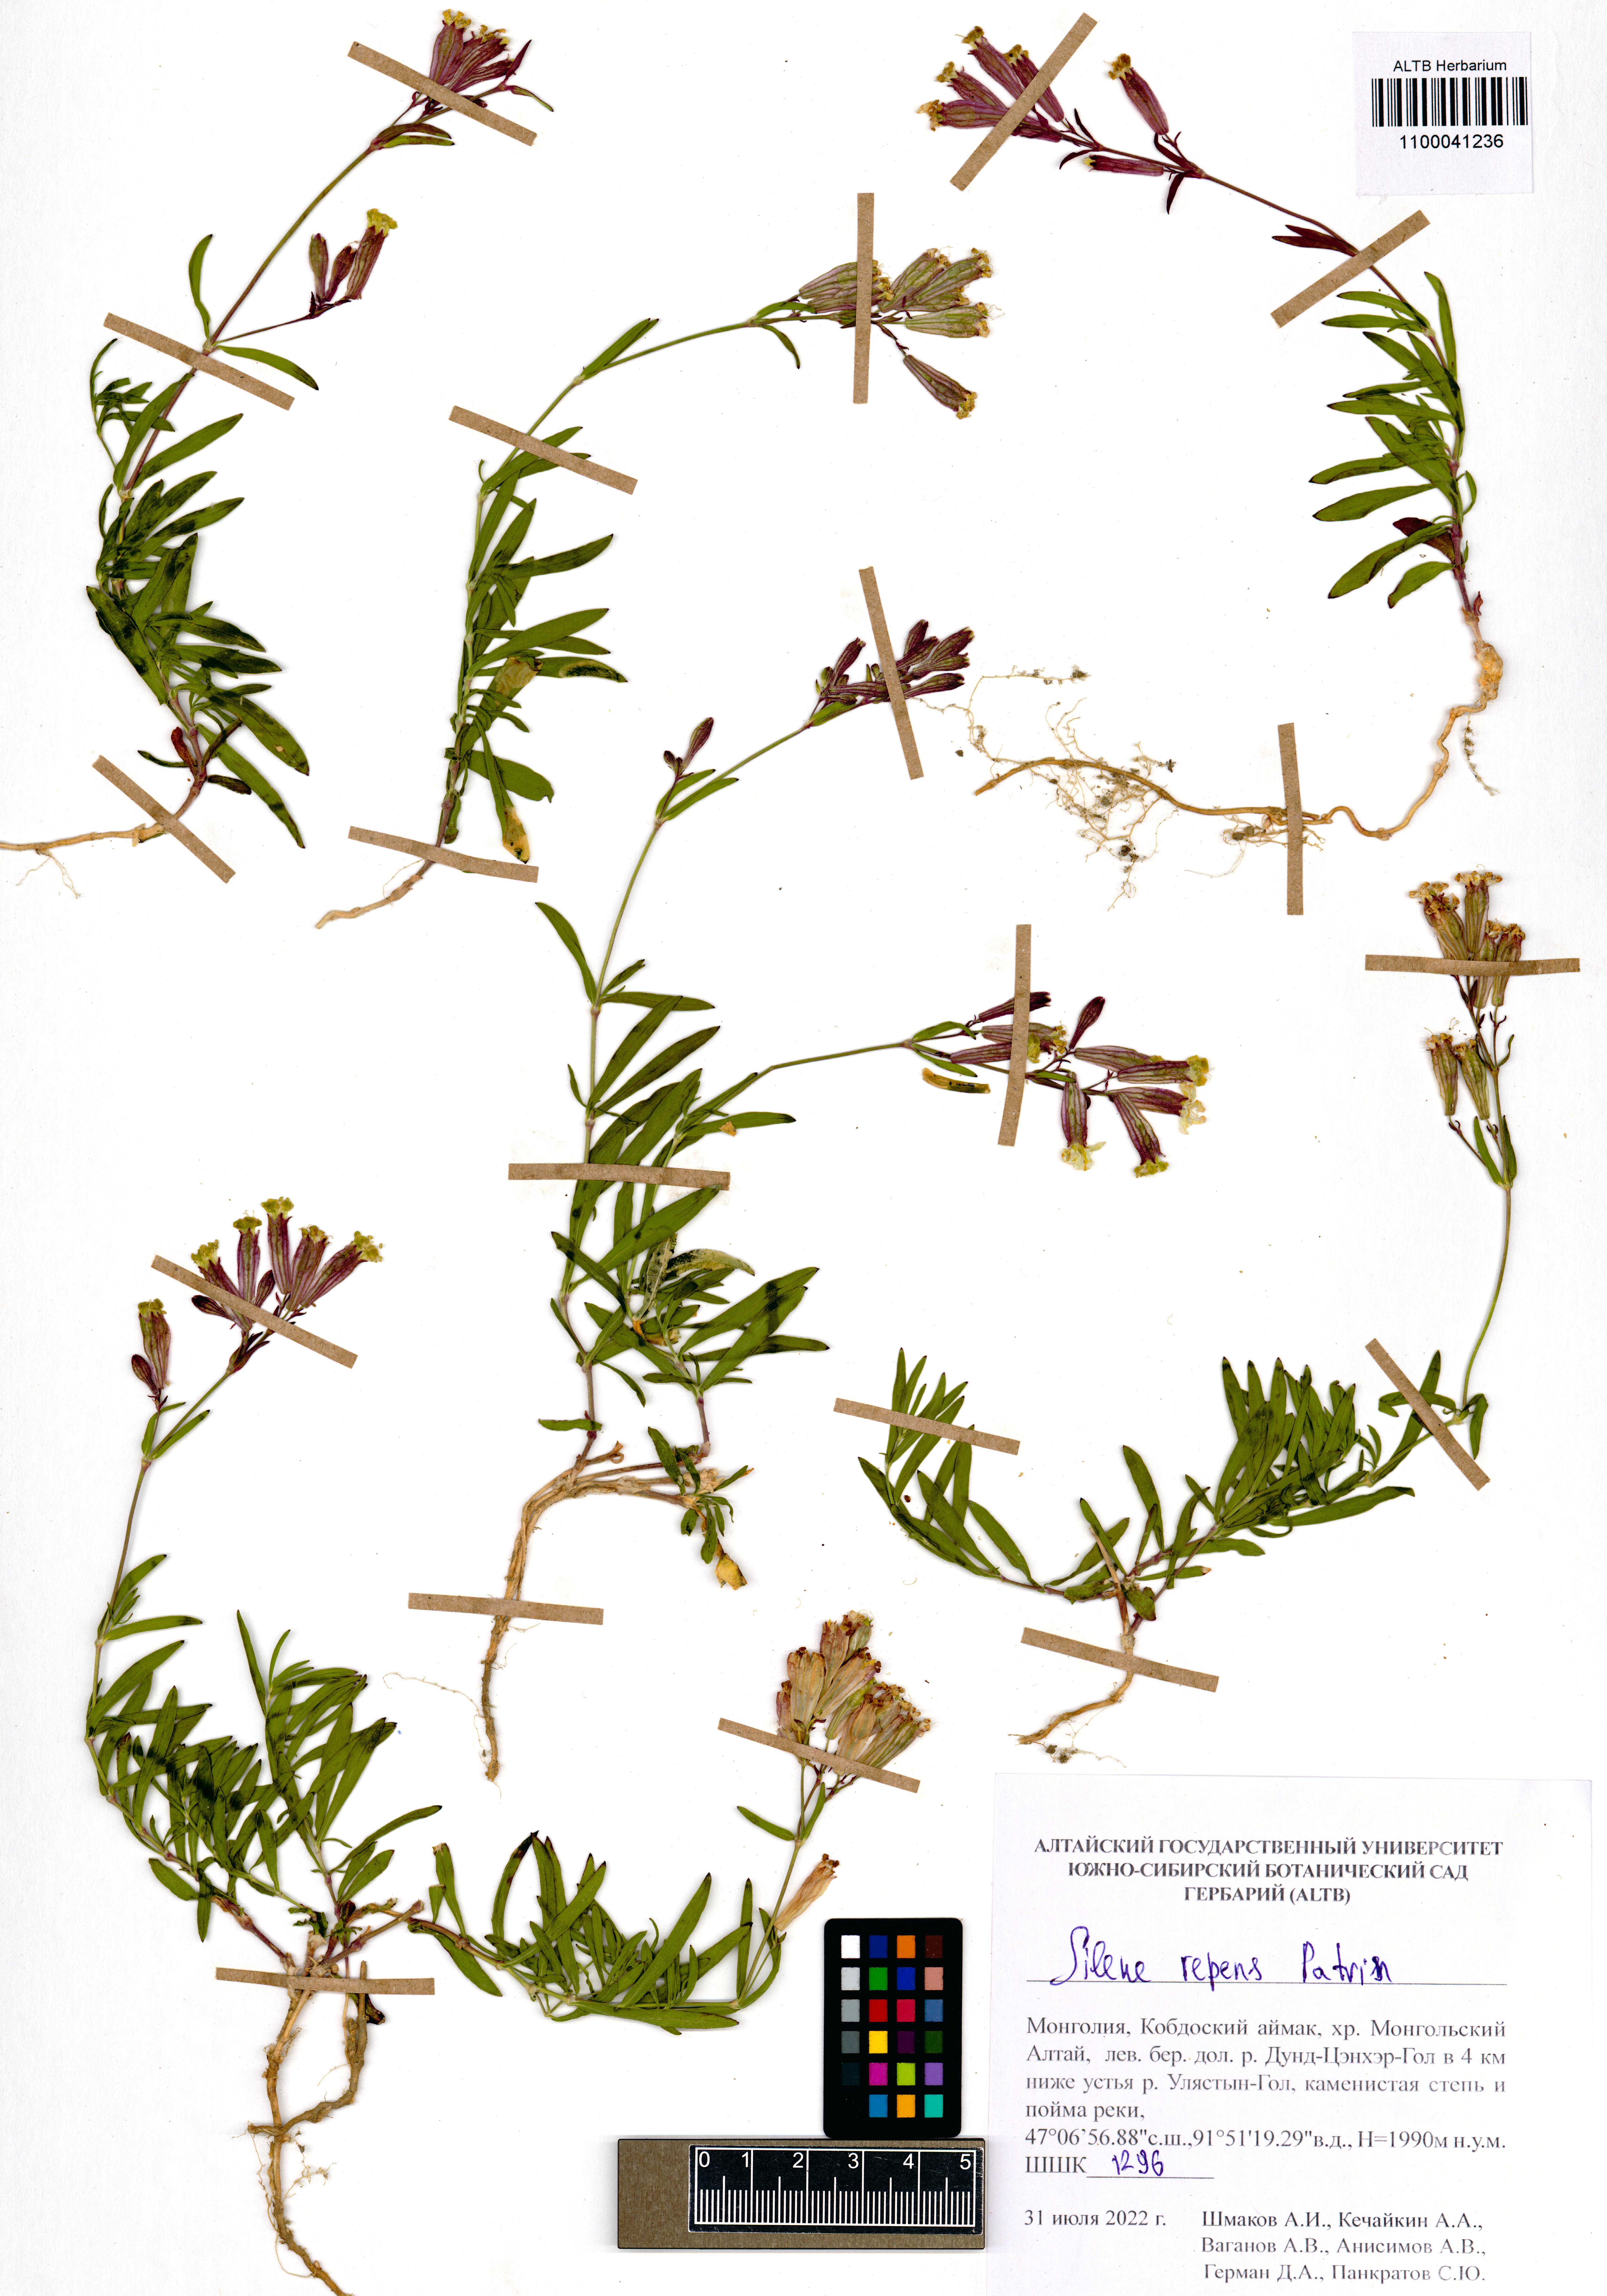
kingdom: Plantae
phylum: Tracheophyta
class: Magnoliopsida
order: Caryophyllales
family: Caryophyllaceae
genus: Silene
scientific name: Silene repens
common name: Pink campion
